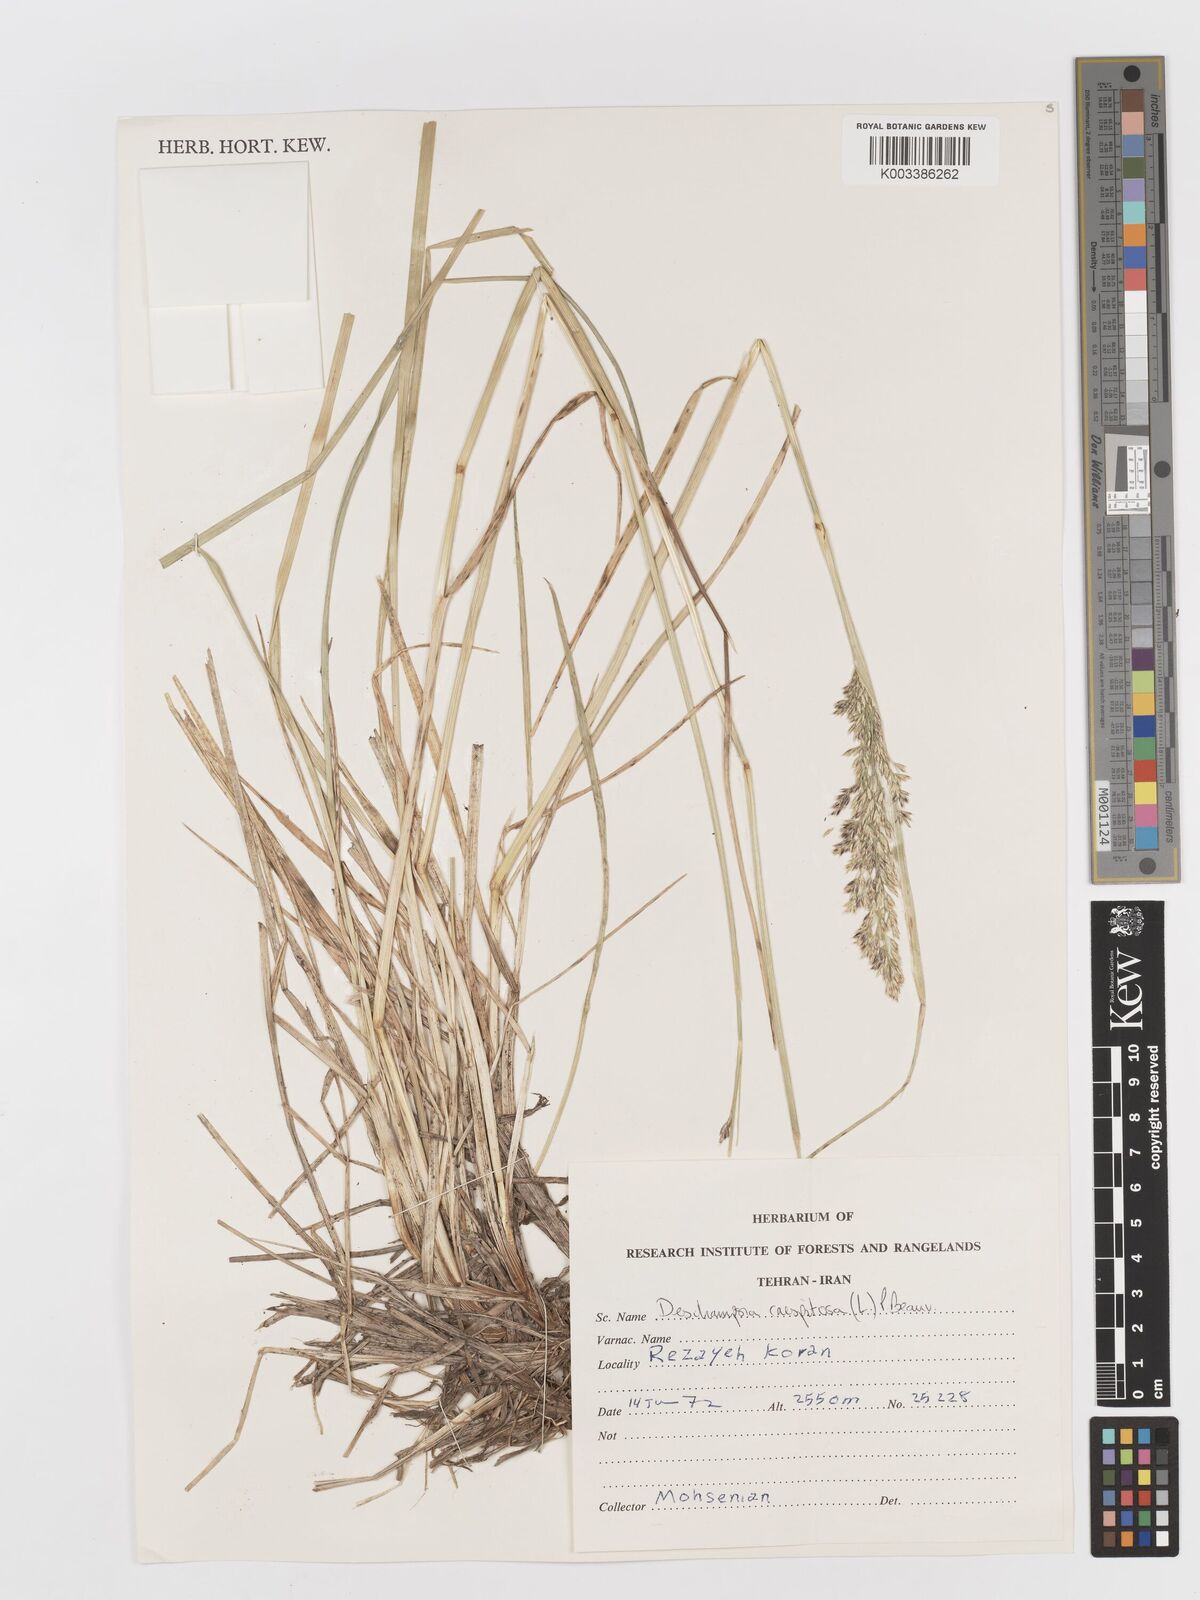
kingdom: Plantae
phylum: Tracheophyta
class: Liliopsida
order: Poales
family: Poaceae
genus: Deschampsia
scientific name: Deschampsia cespitosa
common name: Tufted hair-grass
